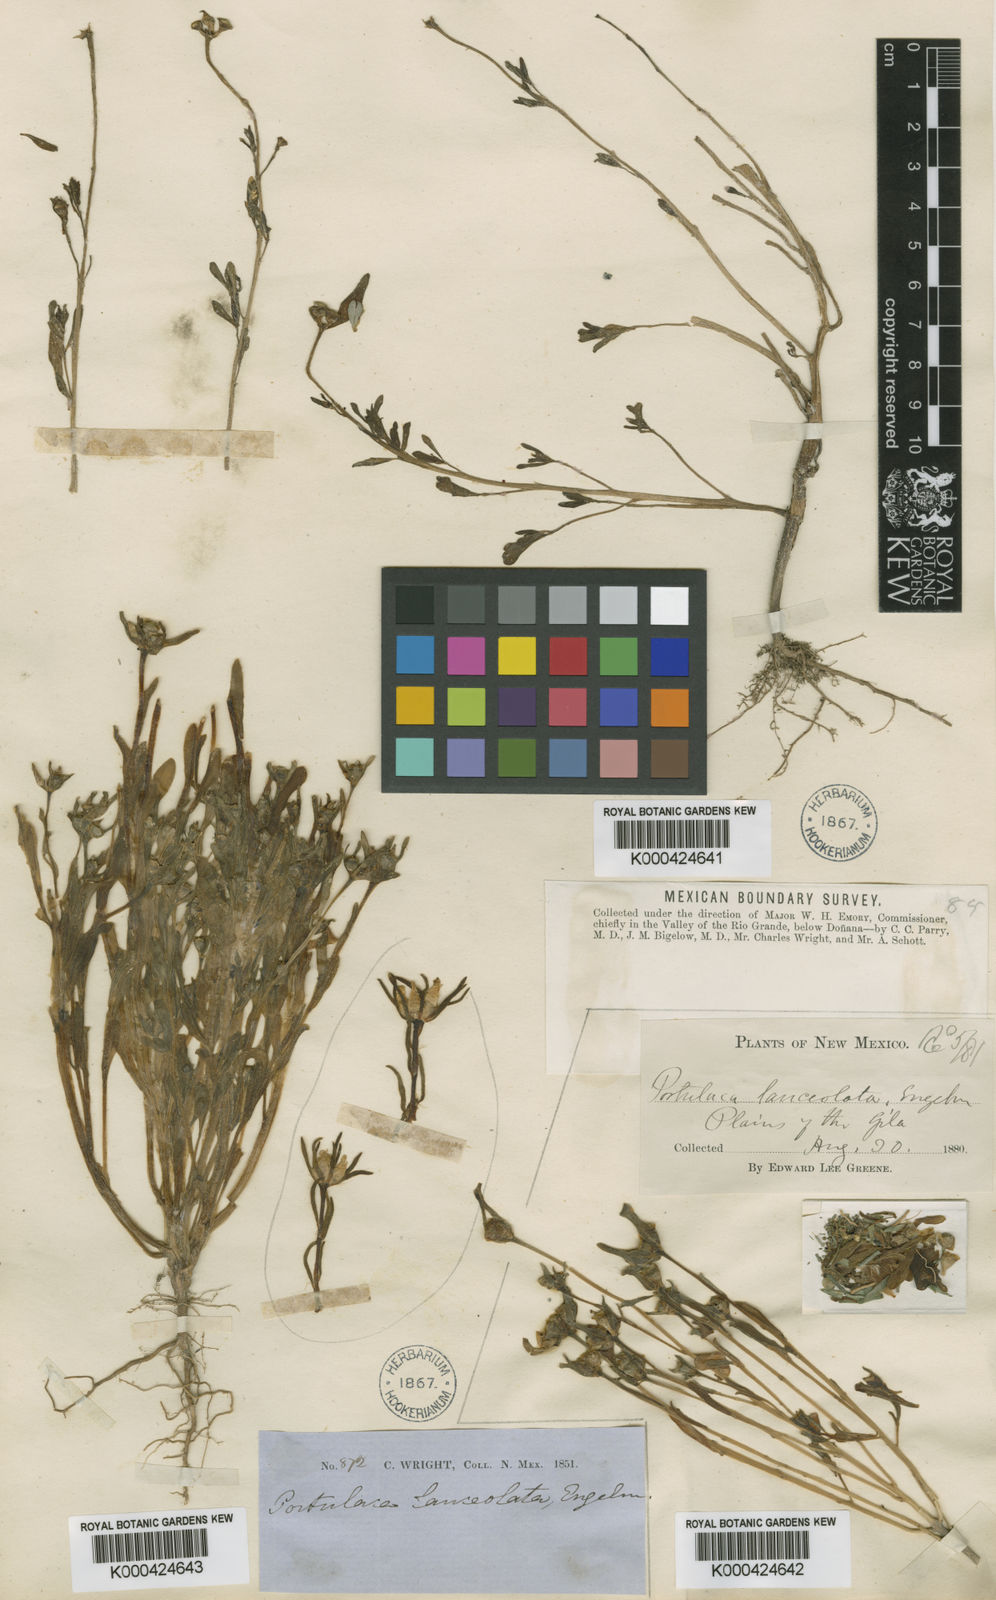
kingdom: Plantae
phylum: Tracheophyta
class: Magnoliopsida
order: Caryophyllales
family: Portulacaceae
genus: Portulaca
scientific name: Portulaca umbraticola
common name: Wingpod purslane
